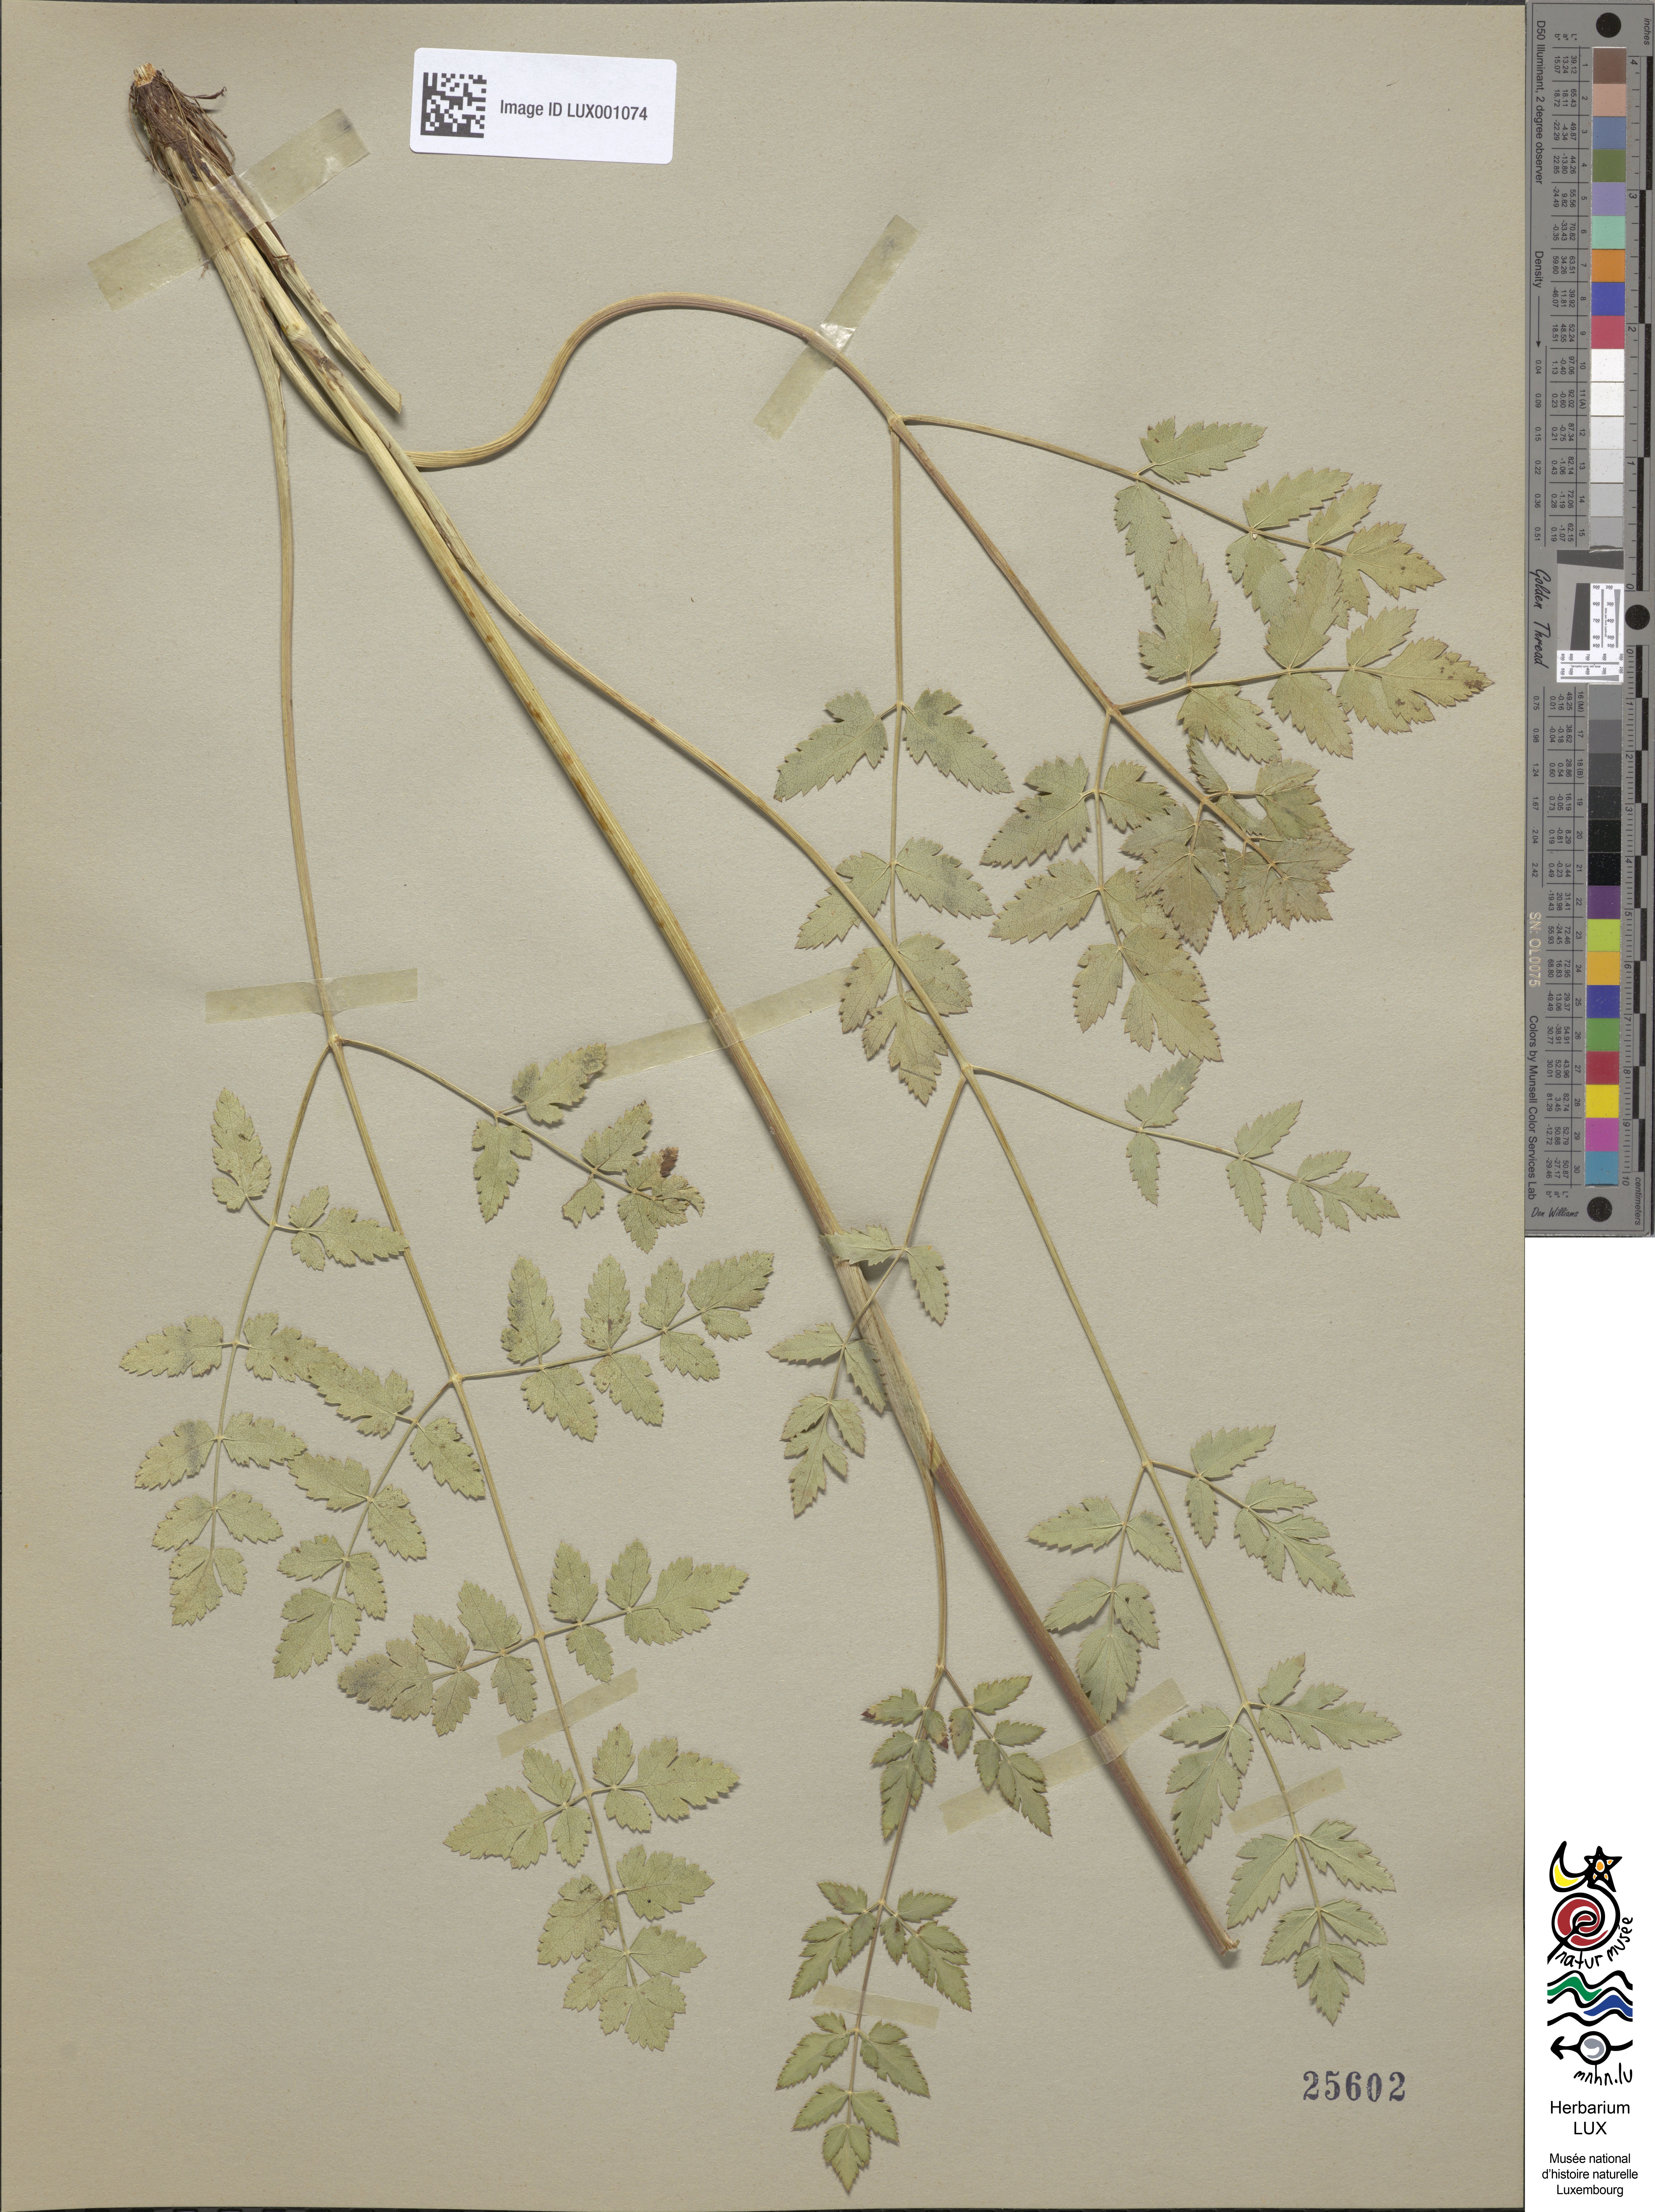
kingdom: Plantae
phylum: Tracheophyta
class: Magnoliopsida
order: Apiales
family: Apiaceae
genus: Cervaria
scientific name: Cervaria rivini
